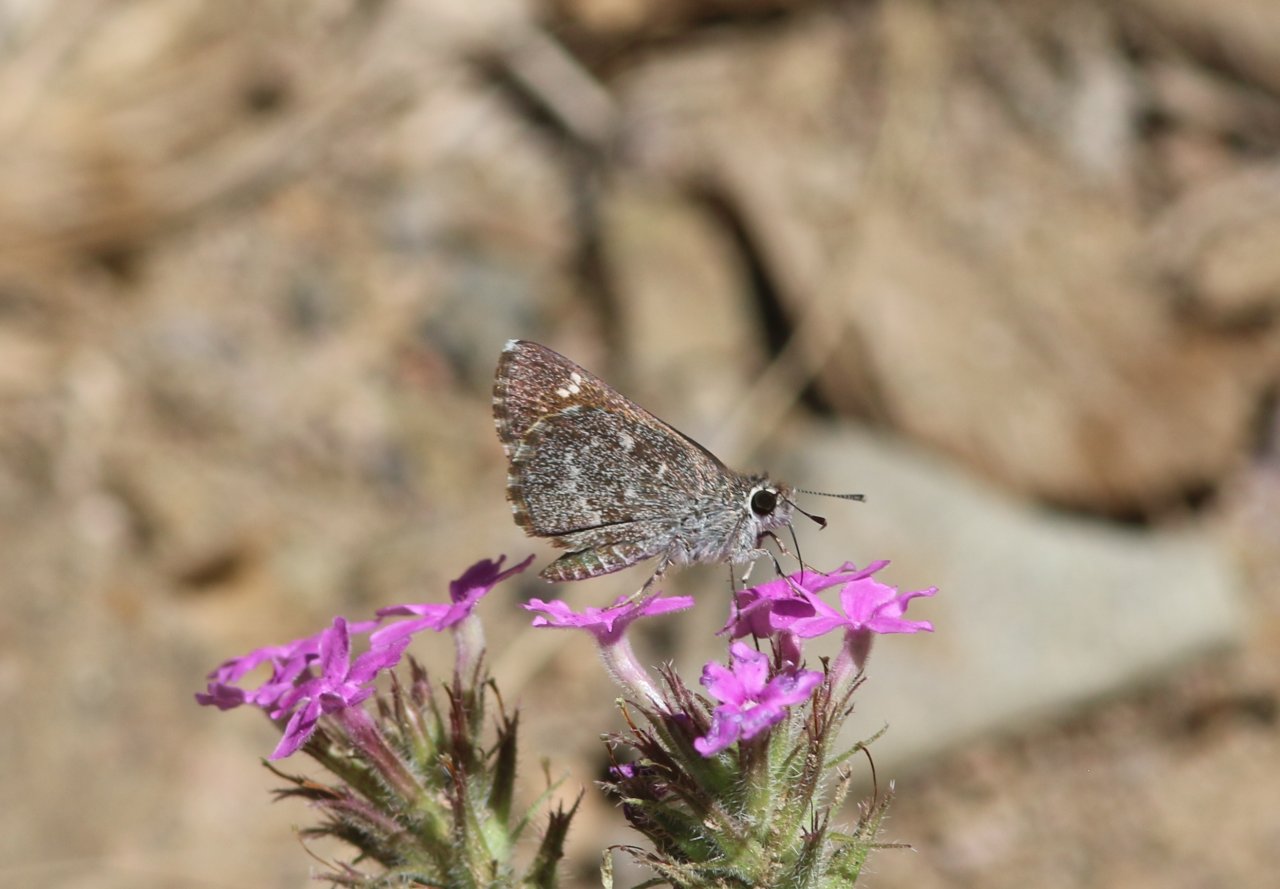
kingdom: Animalia
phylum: Arthropoda
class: Insecta
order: Lepidoptera
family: Hesperiidae
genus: Mastor
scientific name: Mastor aenus
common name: Bronze Roadside-Skipper
